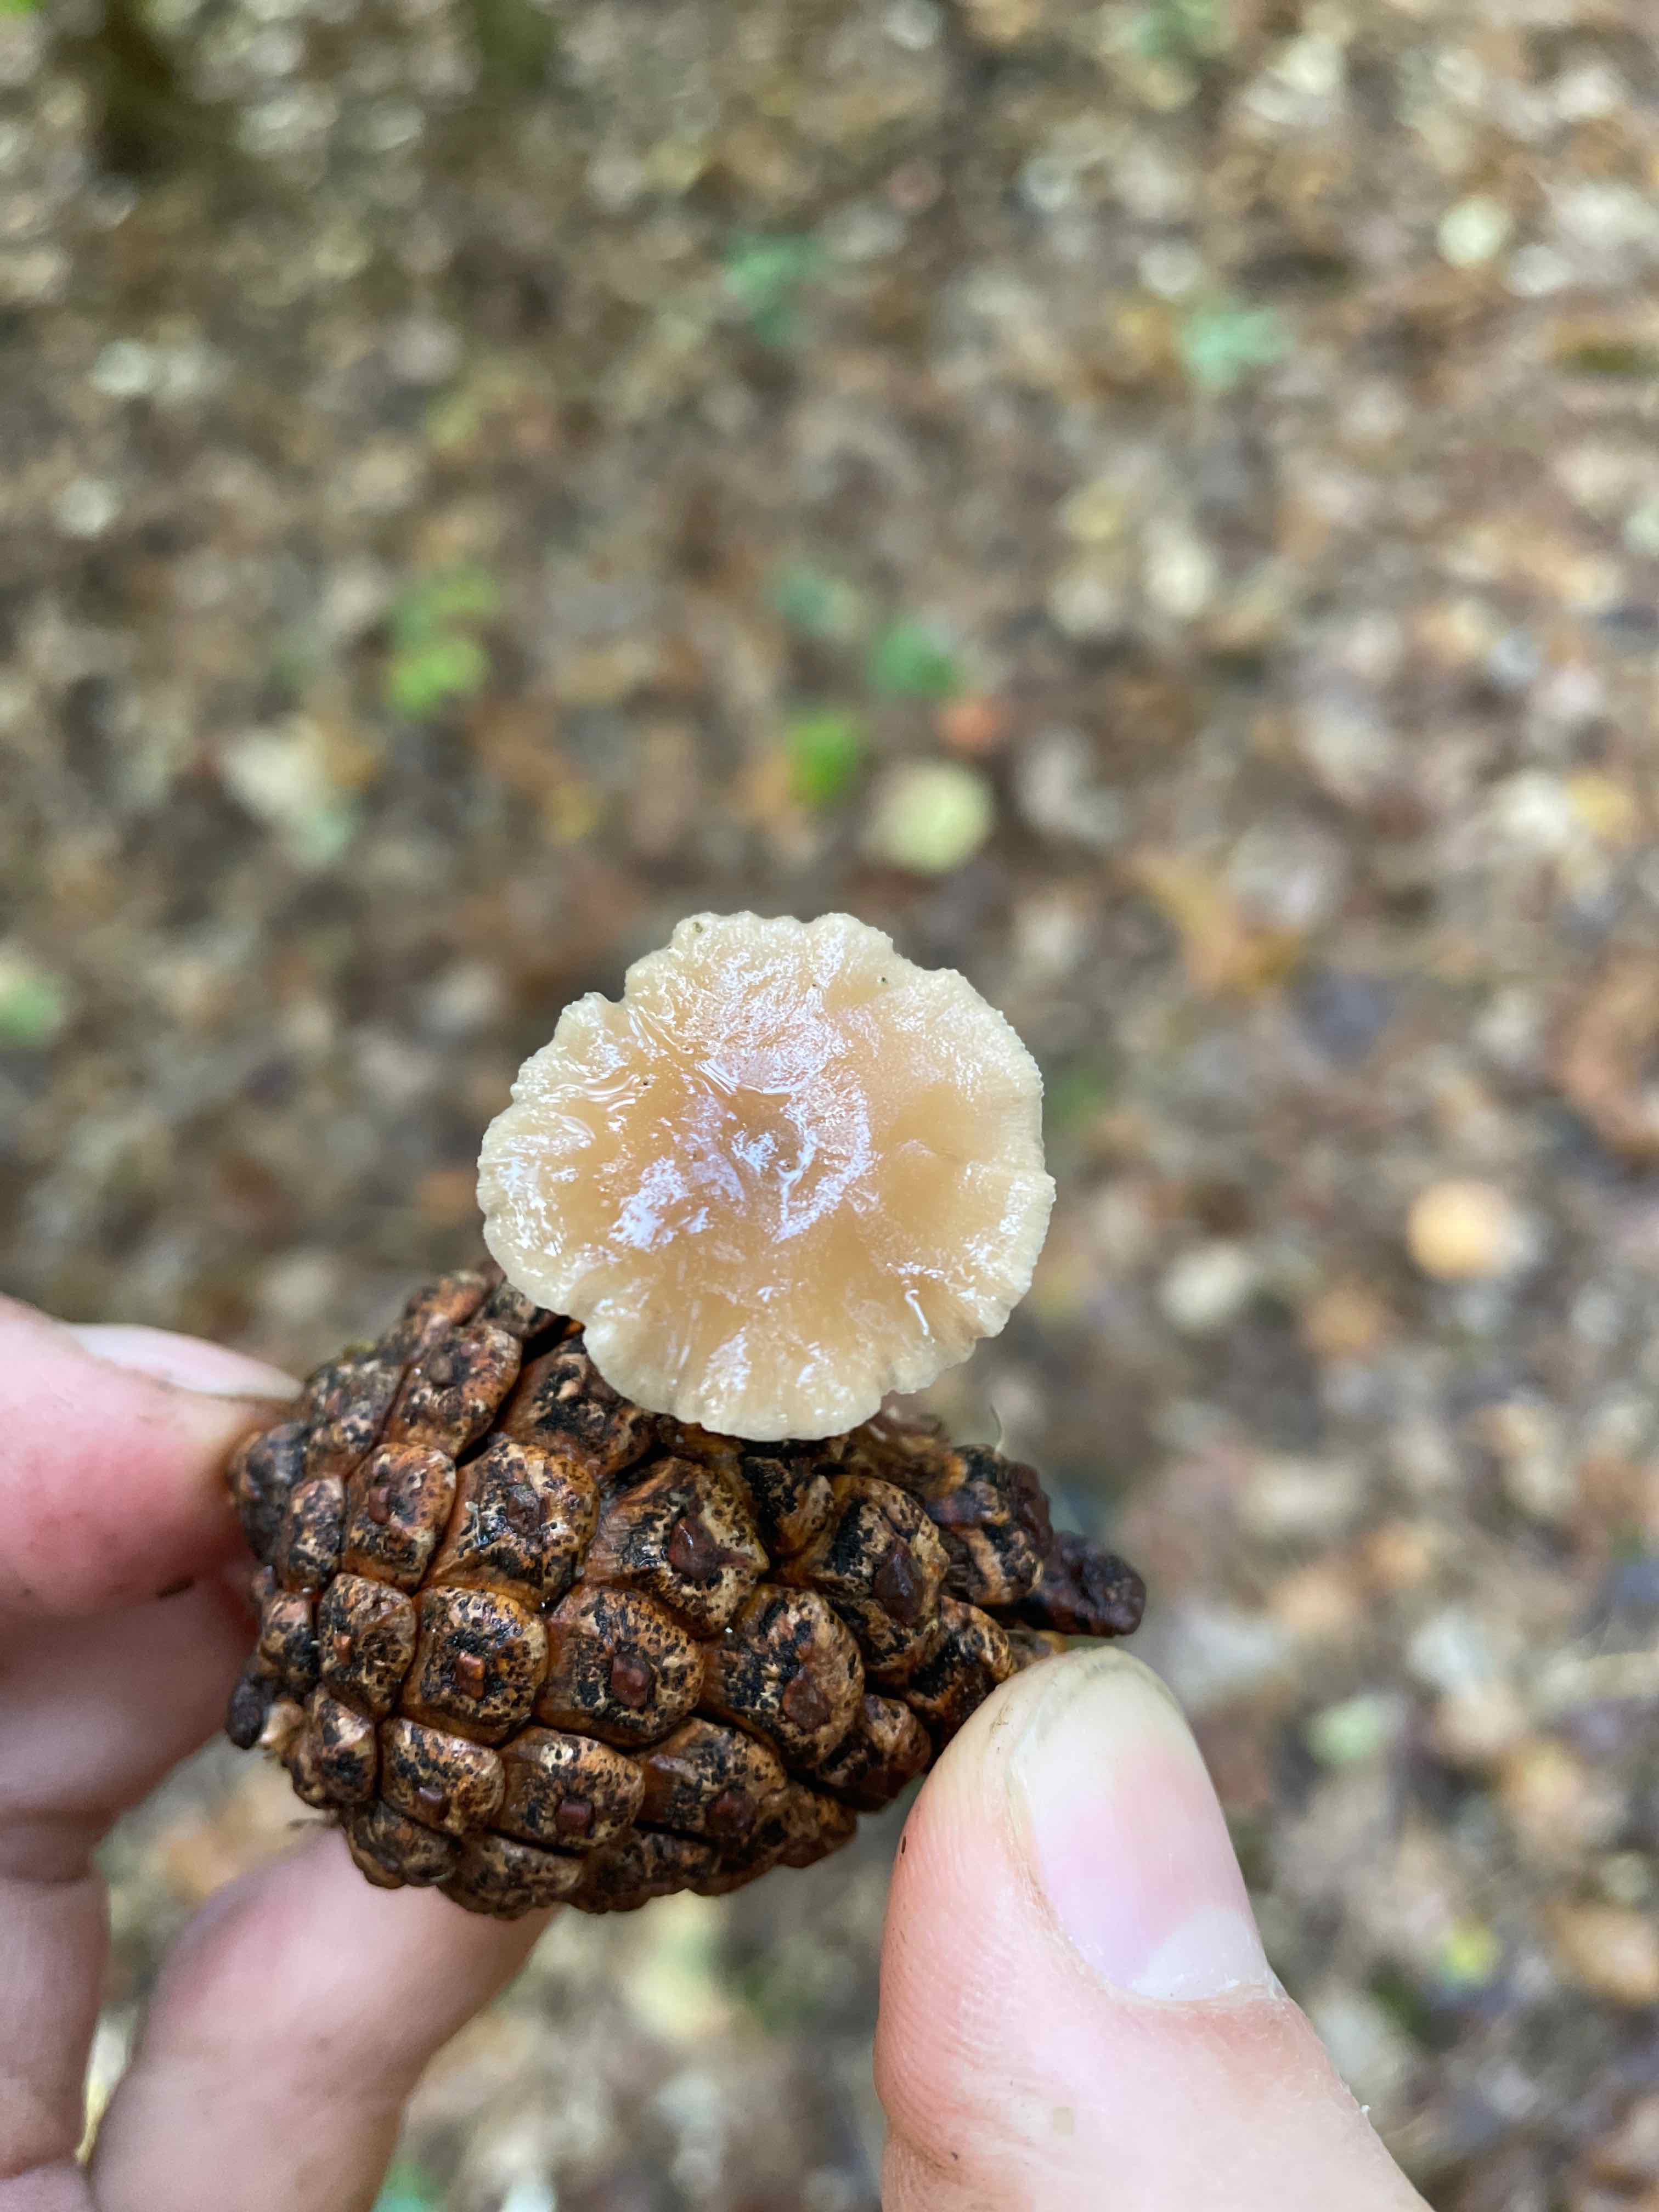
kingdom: Fungi
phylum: Basidiomycota
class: Agaricomycetes
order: Agaricales
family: Marasmiaceae
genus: Baeospora
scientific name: Baeospora myosura
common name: koglebruskhat
